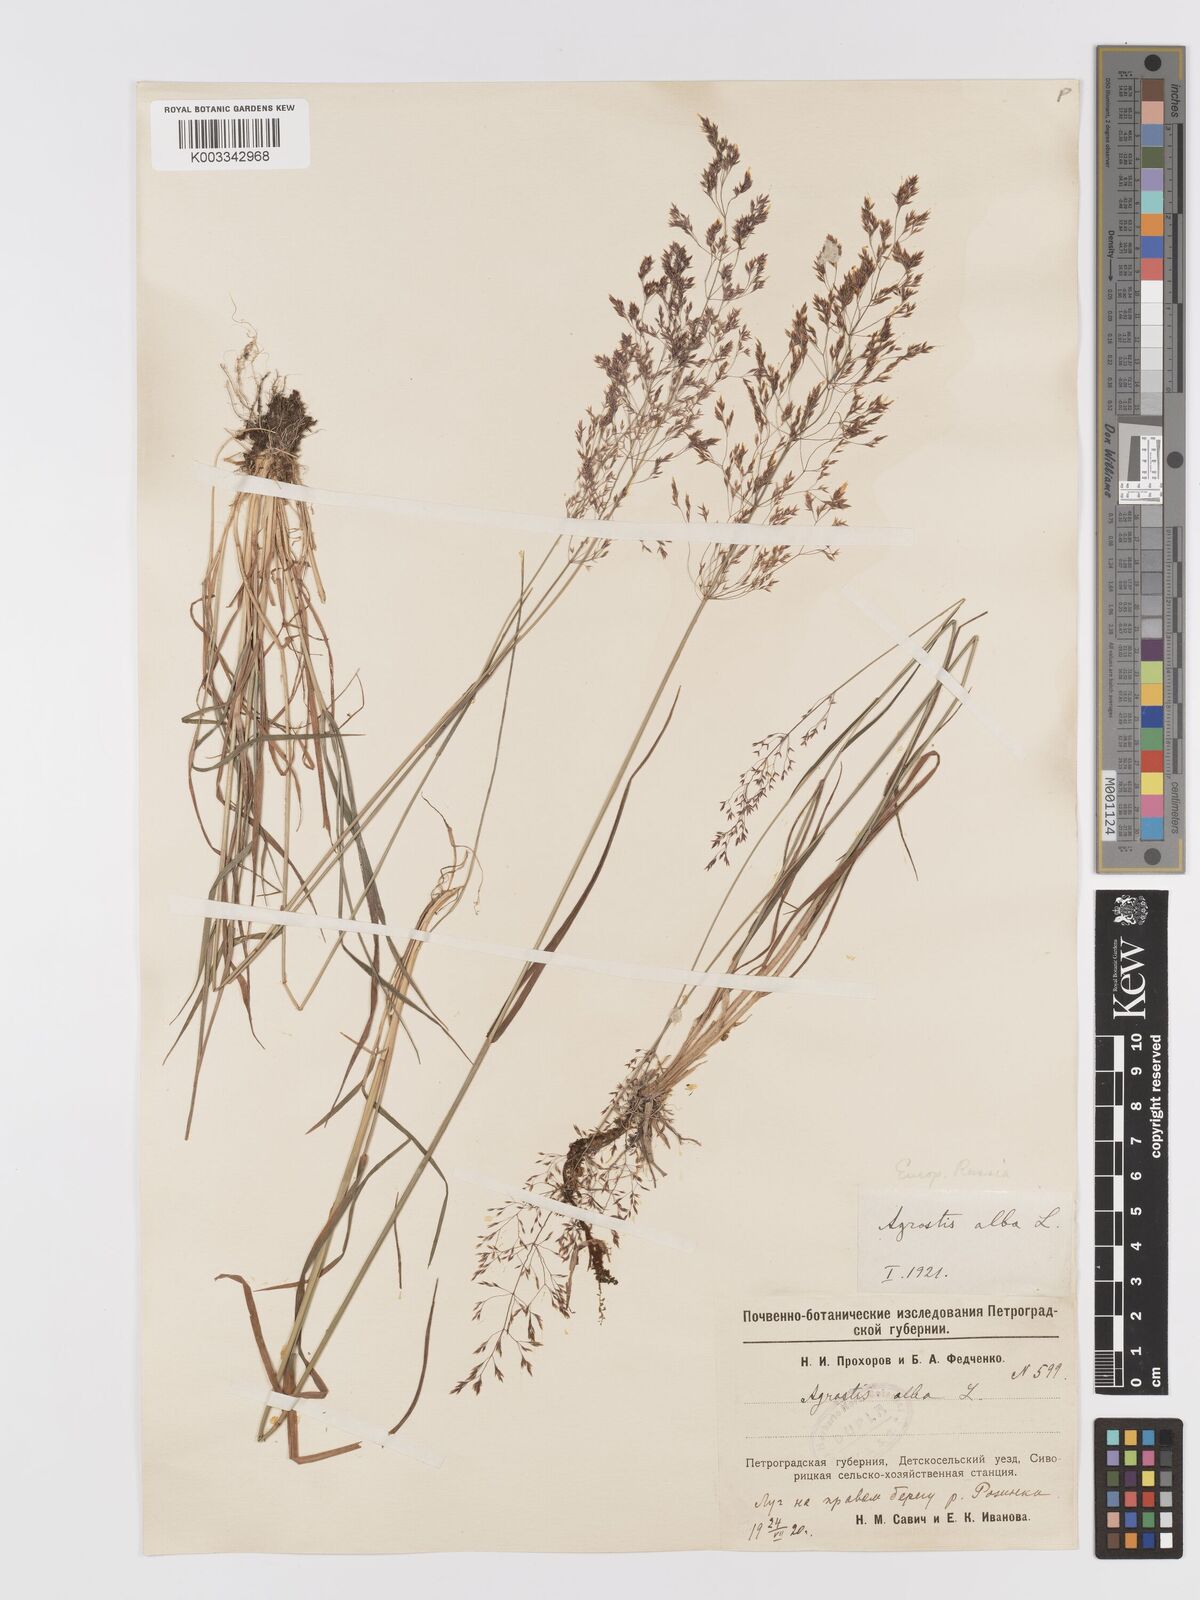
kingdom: Plantae
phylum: Tracheophyta
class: Liliopsida
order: Poales
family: Poaceae
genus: Agrostis
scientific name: Agrostis stolonifera
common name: Creeping bentgrass
